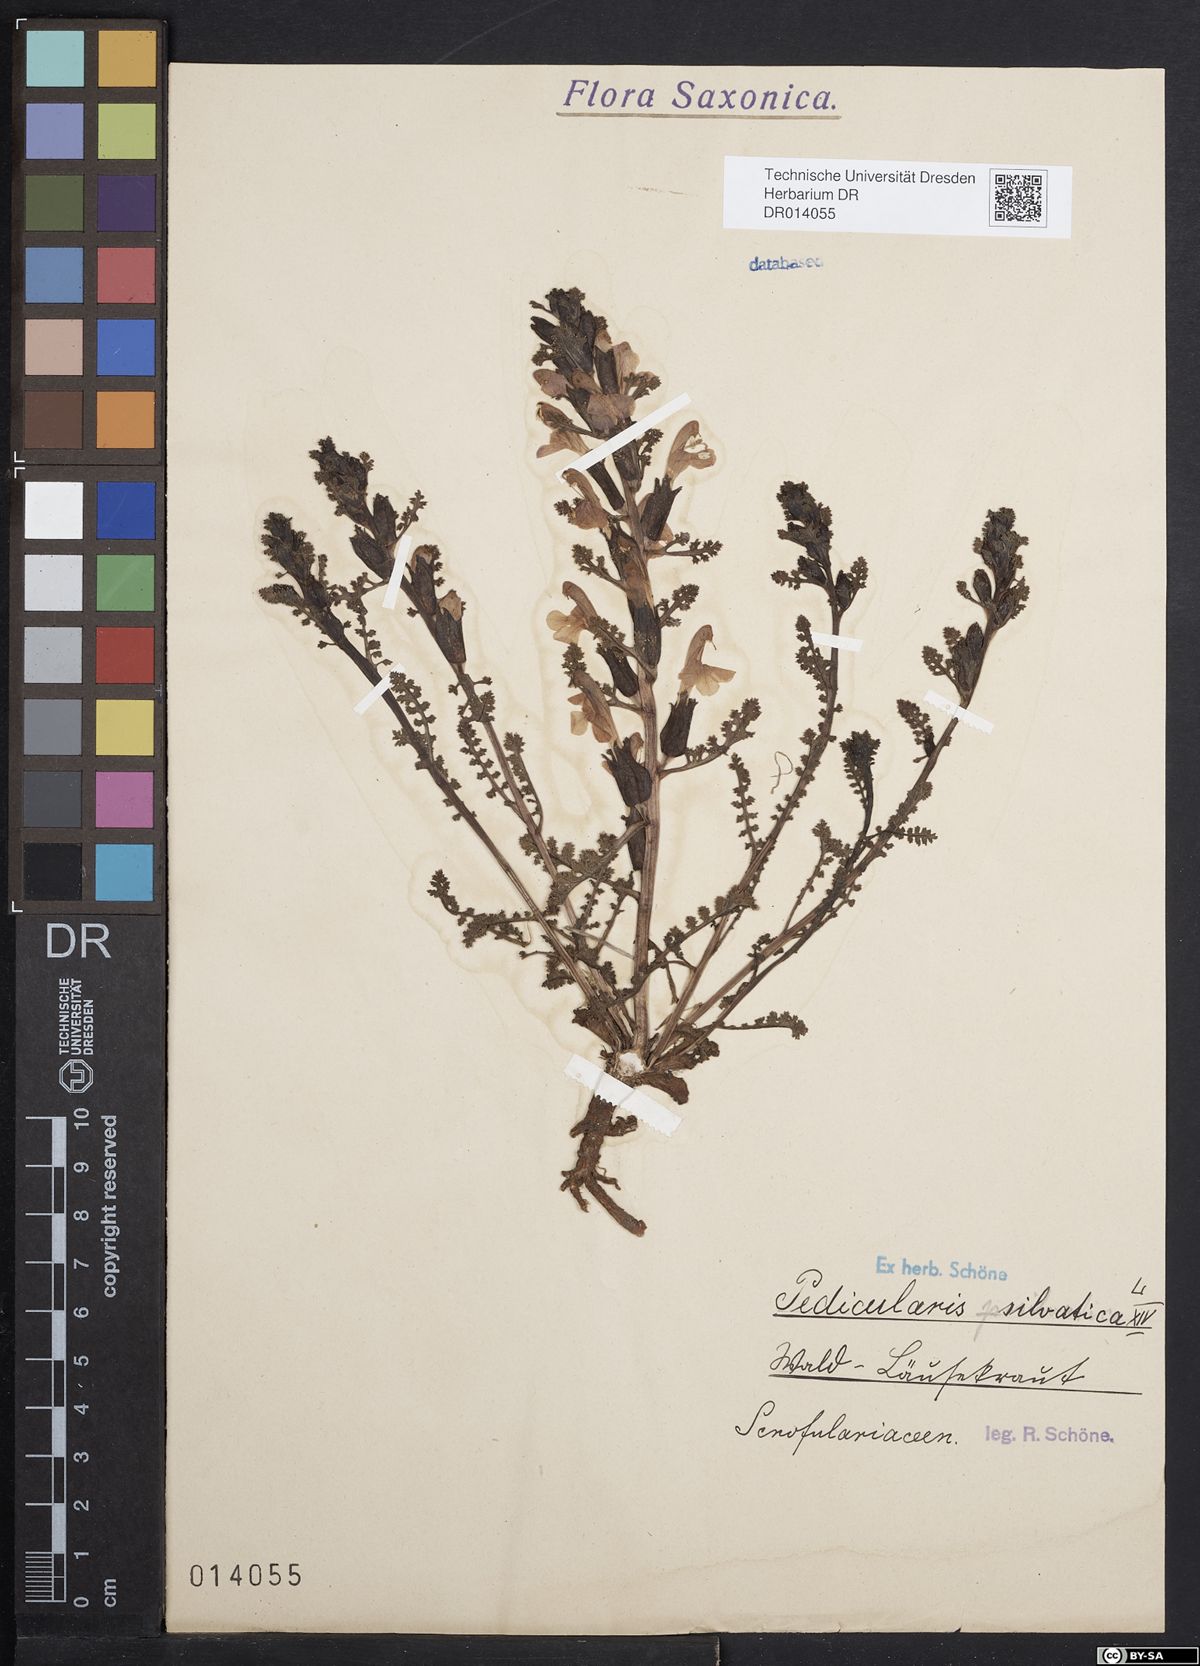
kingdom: Plantae
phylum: Tracheophyta
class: Magnoliopsida
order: Lamiales
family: Orobanchaceae
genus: Pedicularis
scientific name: Pedicularis sylvatica
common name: Lousewort
